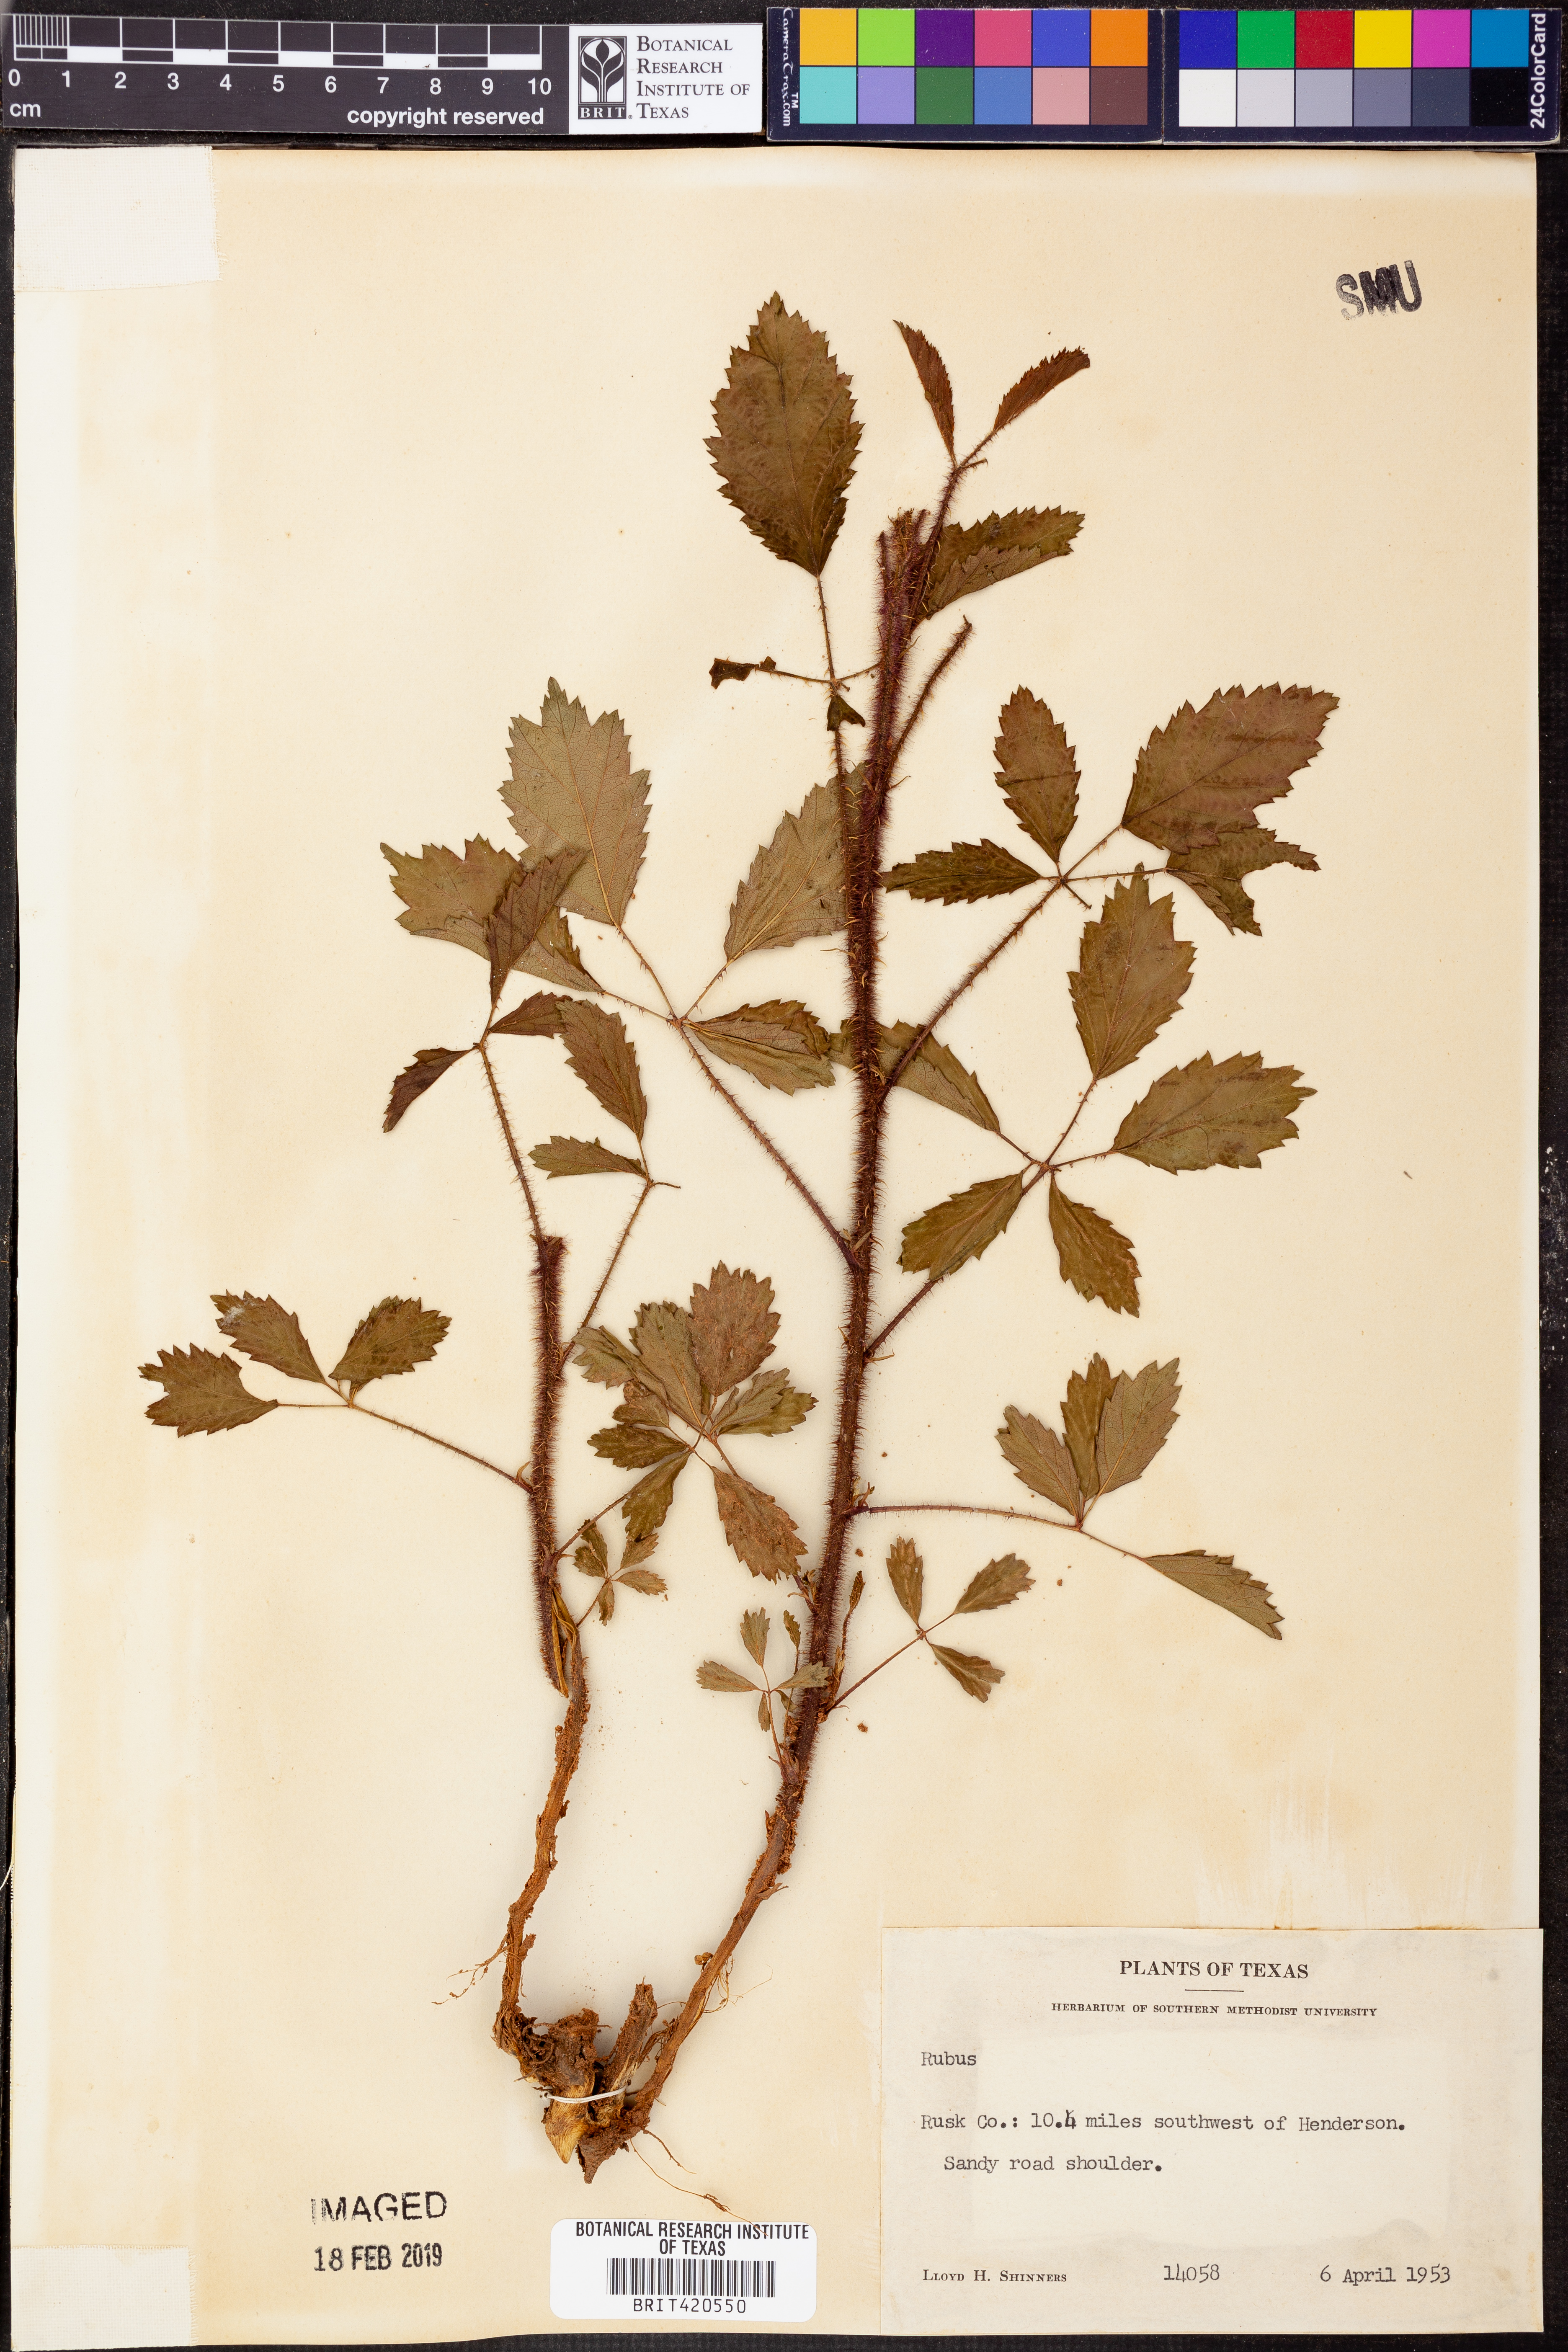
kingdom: Plantae
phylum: Tracheophyta
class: Magnoliopsida
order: Rosales
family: Rosaceae
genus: Rubus
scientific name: Rubus
